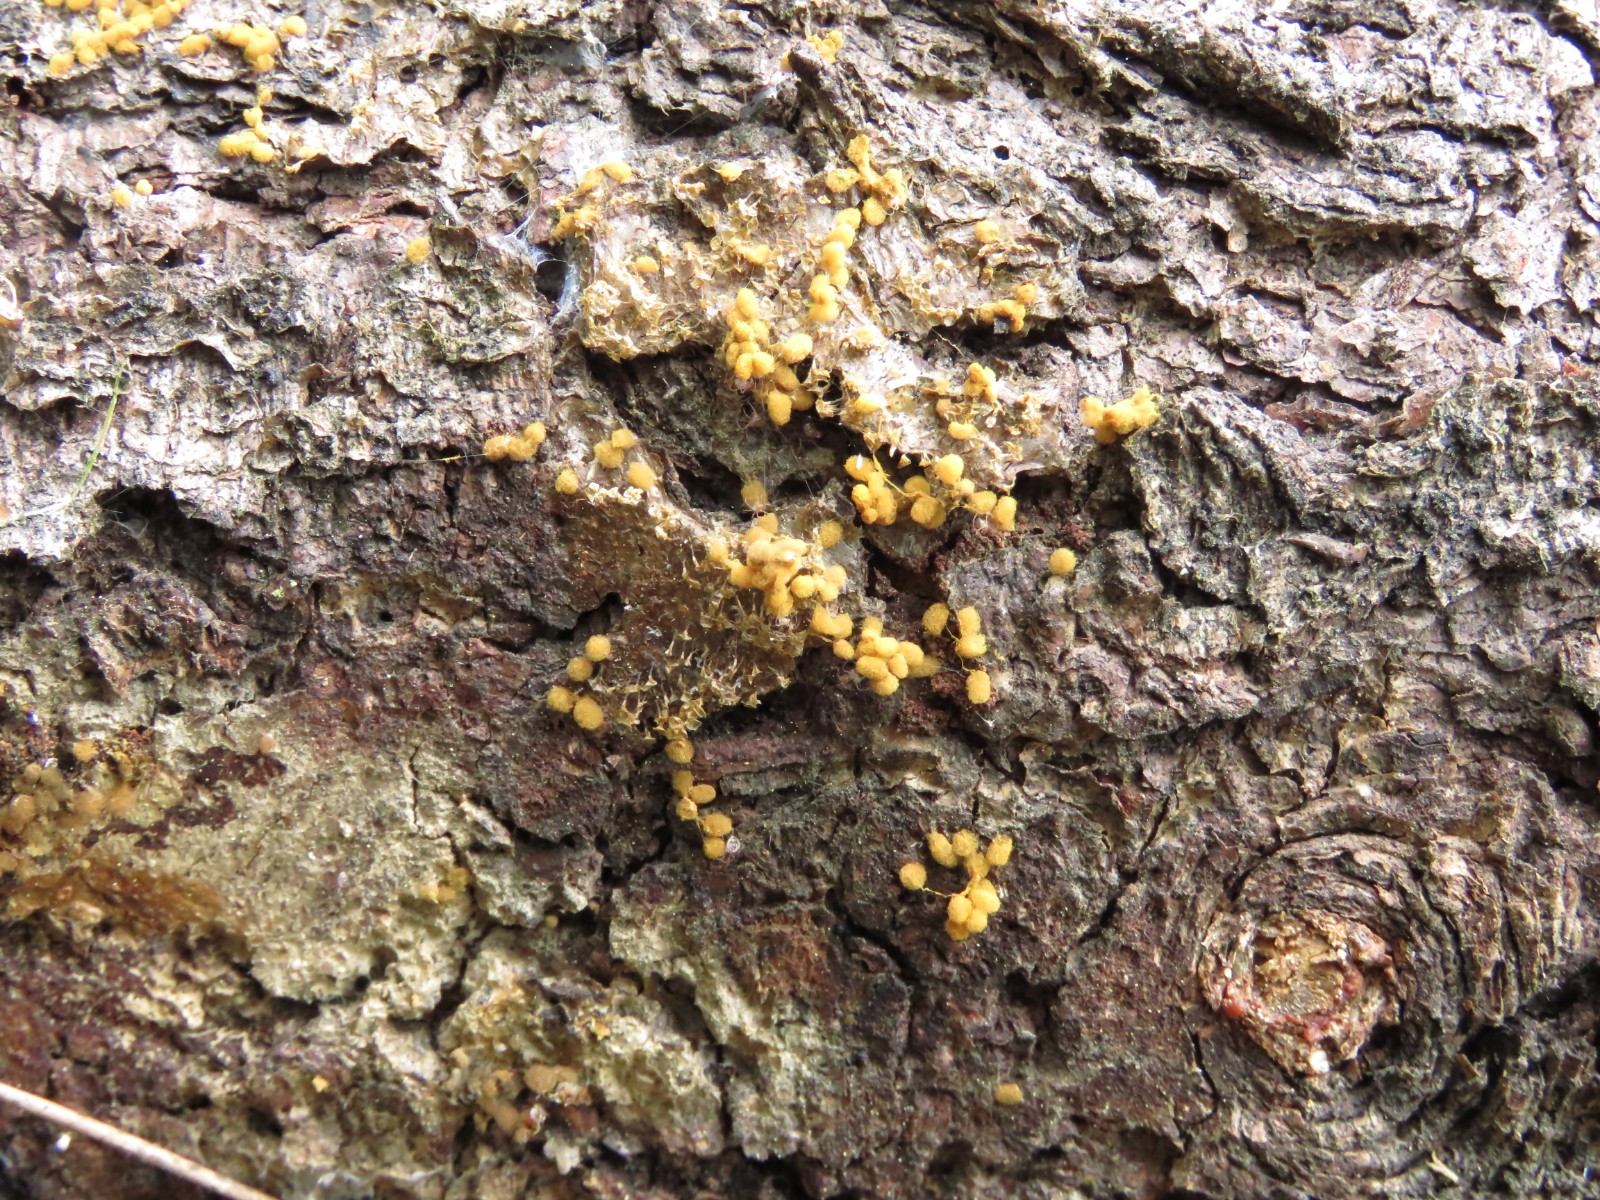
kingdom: Protozoa
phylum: Mycetozoa
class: Myxomycetes
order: Trichiales
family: Arcyriaceae
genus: Arcyria
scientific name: Arcyria ferruginea
